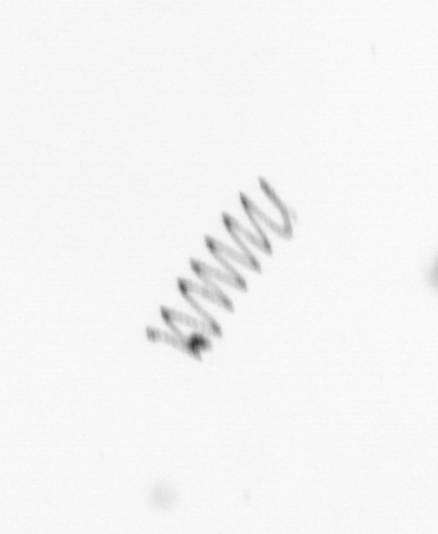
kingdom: Chromista
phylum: Ochrophyta
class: Bacillariophyceae
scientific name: Bacillariophyceae
